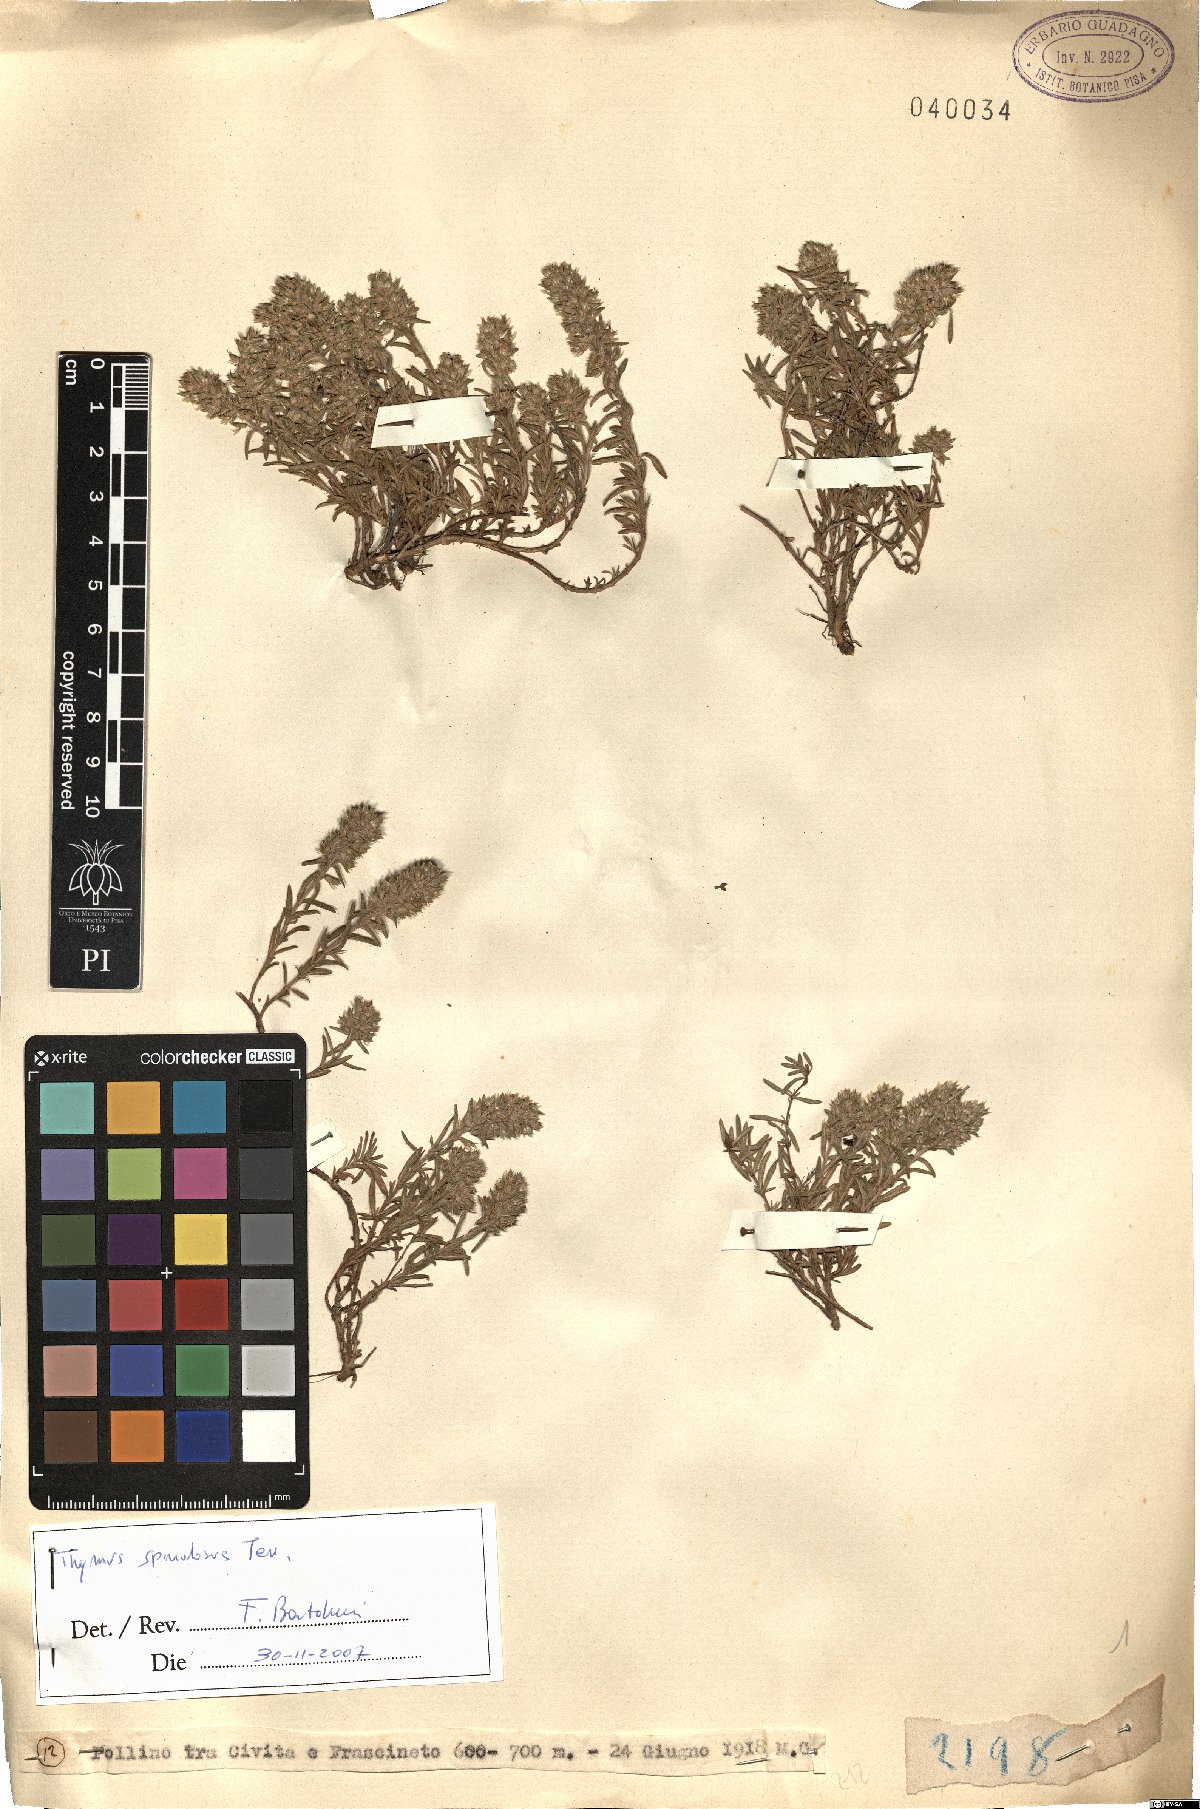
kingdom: Plantae
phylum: Tracheophyta
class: Magnoliopsida
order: Lamiales
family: Lamiaceae
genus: Thymus
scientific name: Thymus spinulosus
